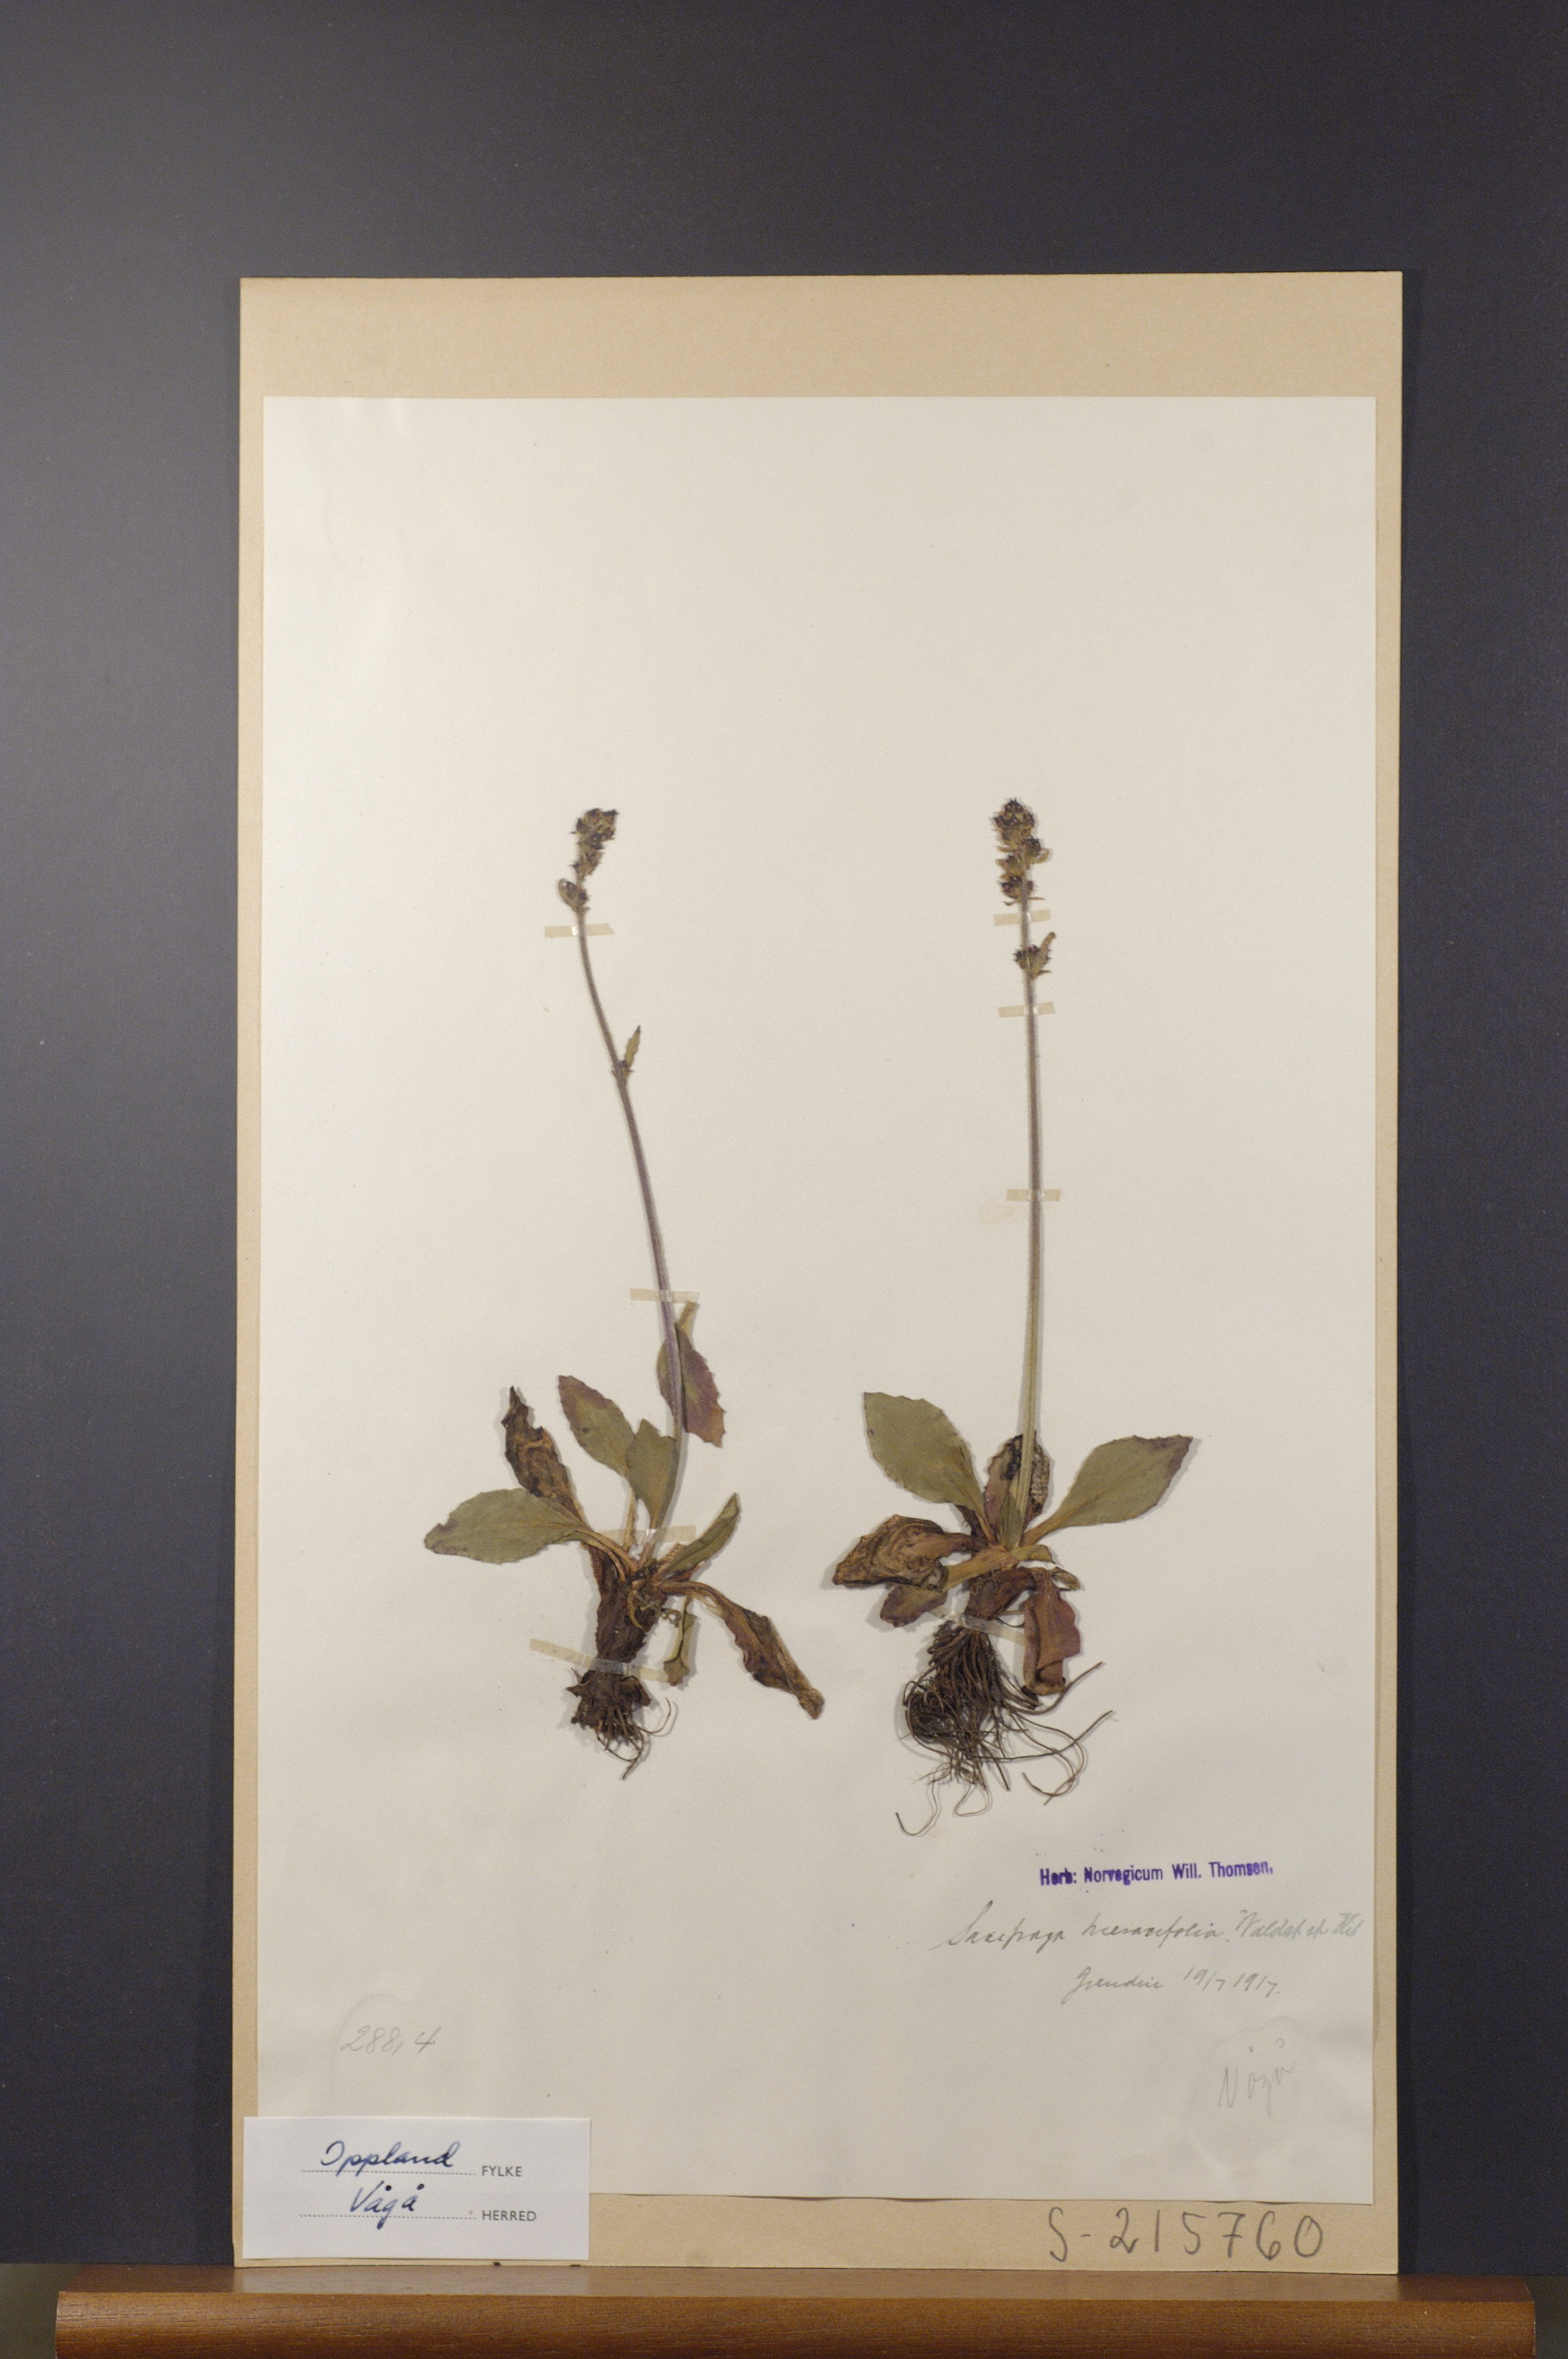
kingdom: Plantae
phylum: Tracheophyta
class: Magnoliopsida
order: Saxifragales
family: Saxifragaceae
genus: Micranthes
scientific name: Micranthes hieraciifolia
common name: Hawkweed-leaved saxifrage
